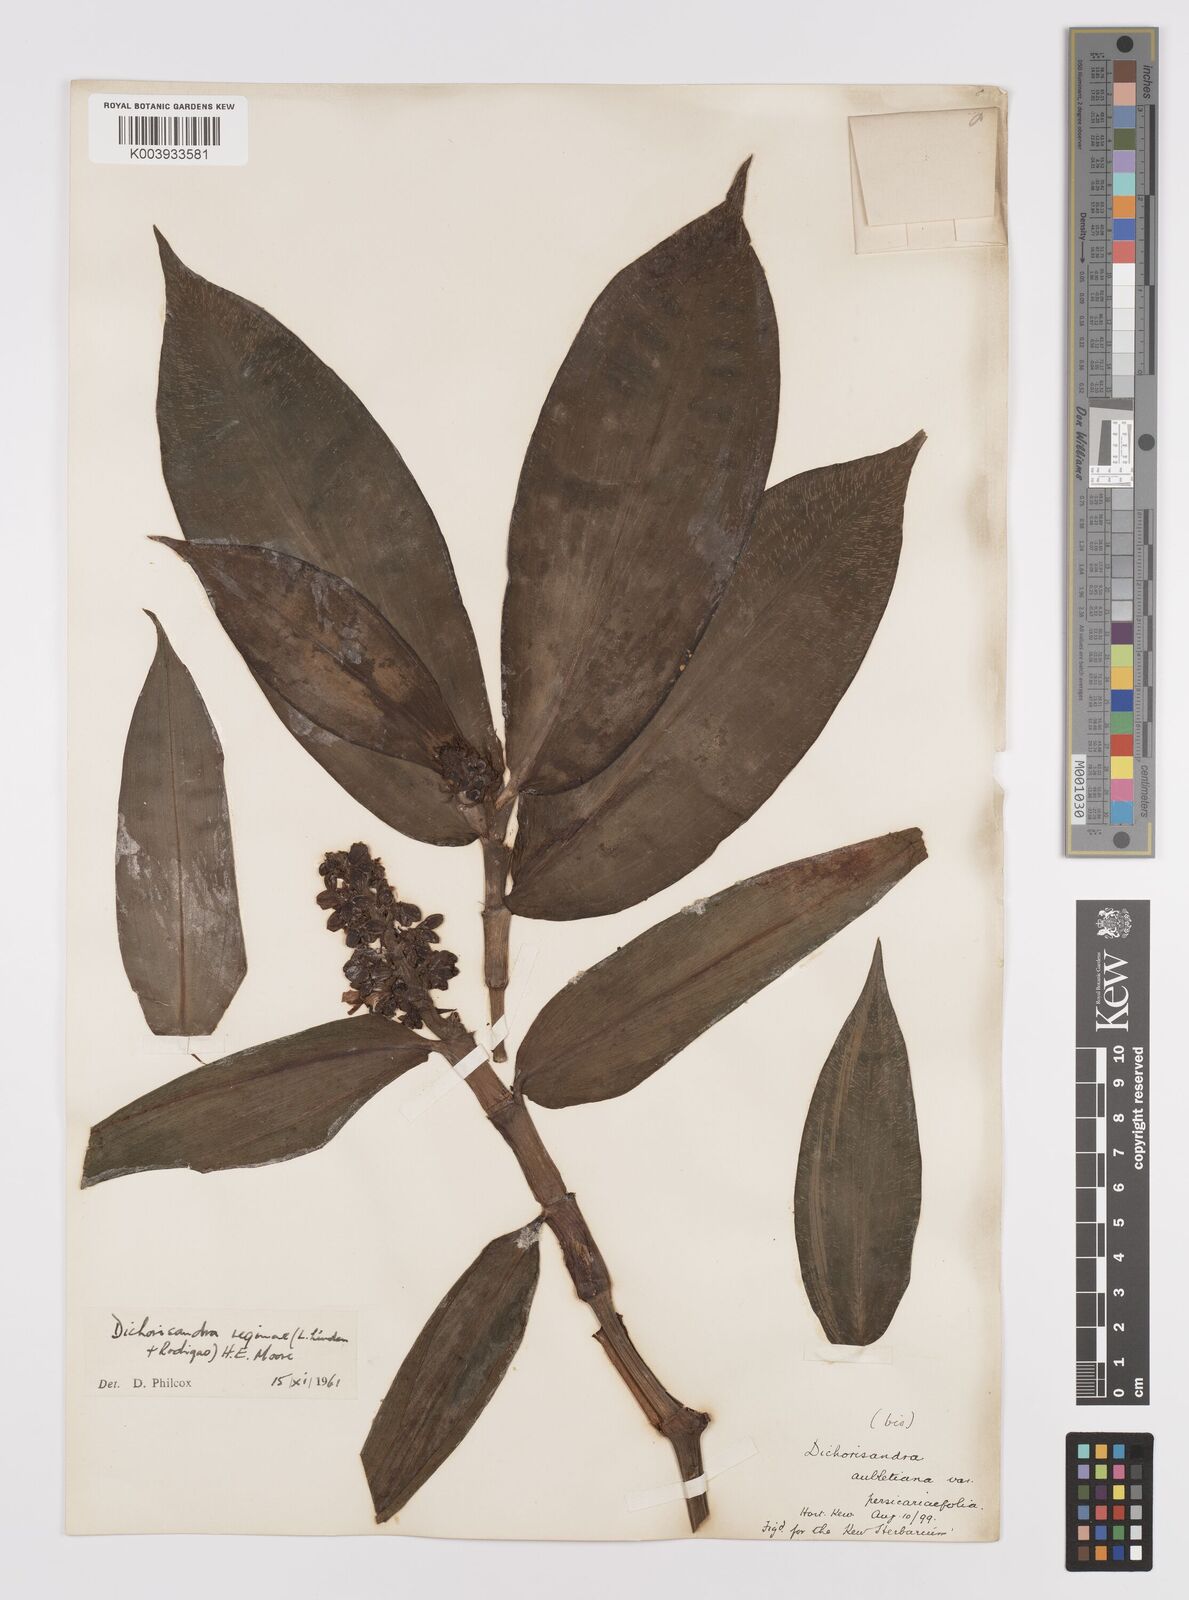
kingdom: Plantae
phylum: Tracheophyta
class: Liliopsida
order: Commelinales
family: Commelinaceae
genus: Dichorisandra
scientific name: Dichorisandra musaica
